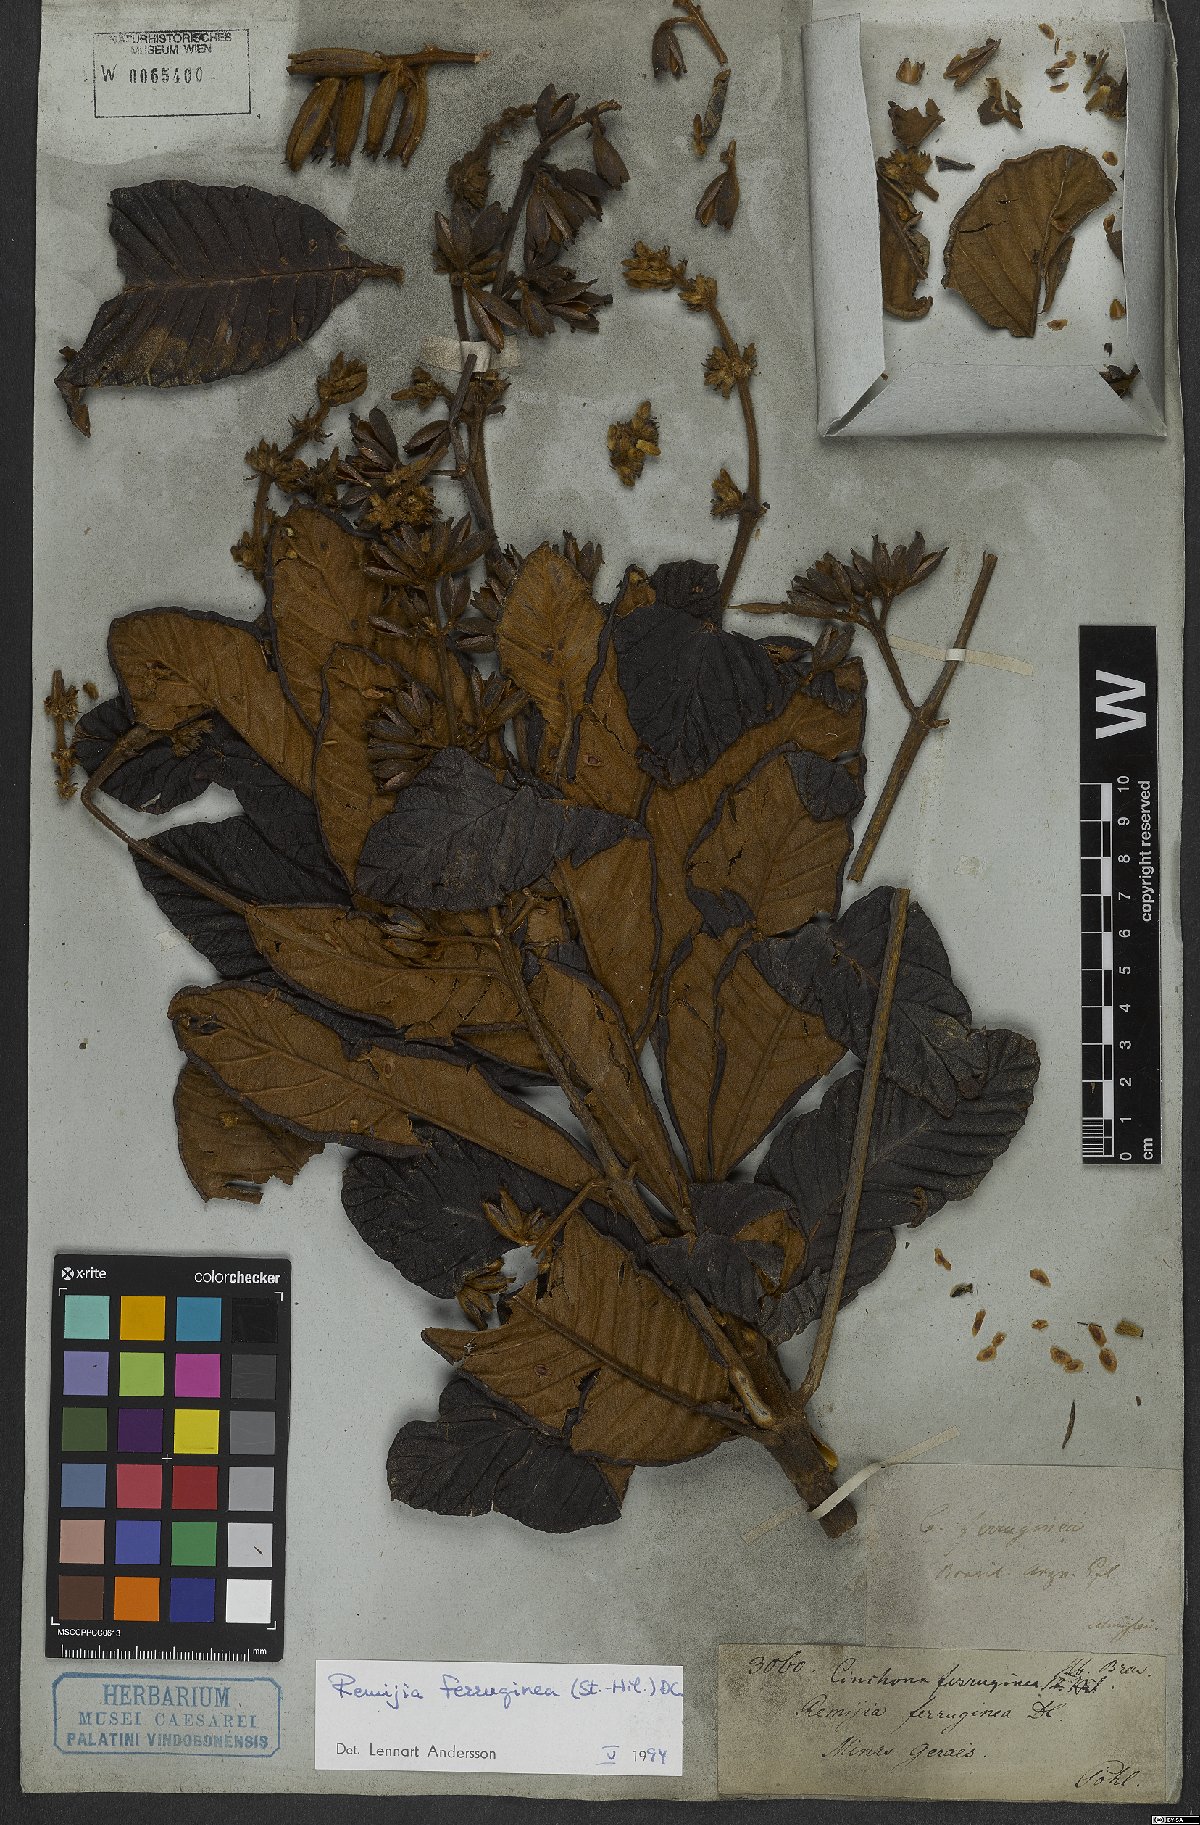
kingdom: Plantae
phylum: Tracheophyta
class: Magnoliopsida
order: Gentianales
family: Rubiaceae
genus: Remijia
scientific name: Remijia ferruginea
